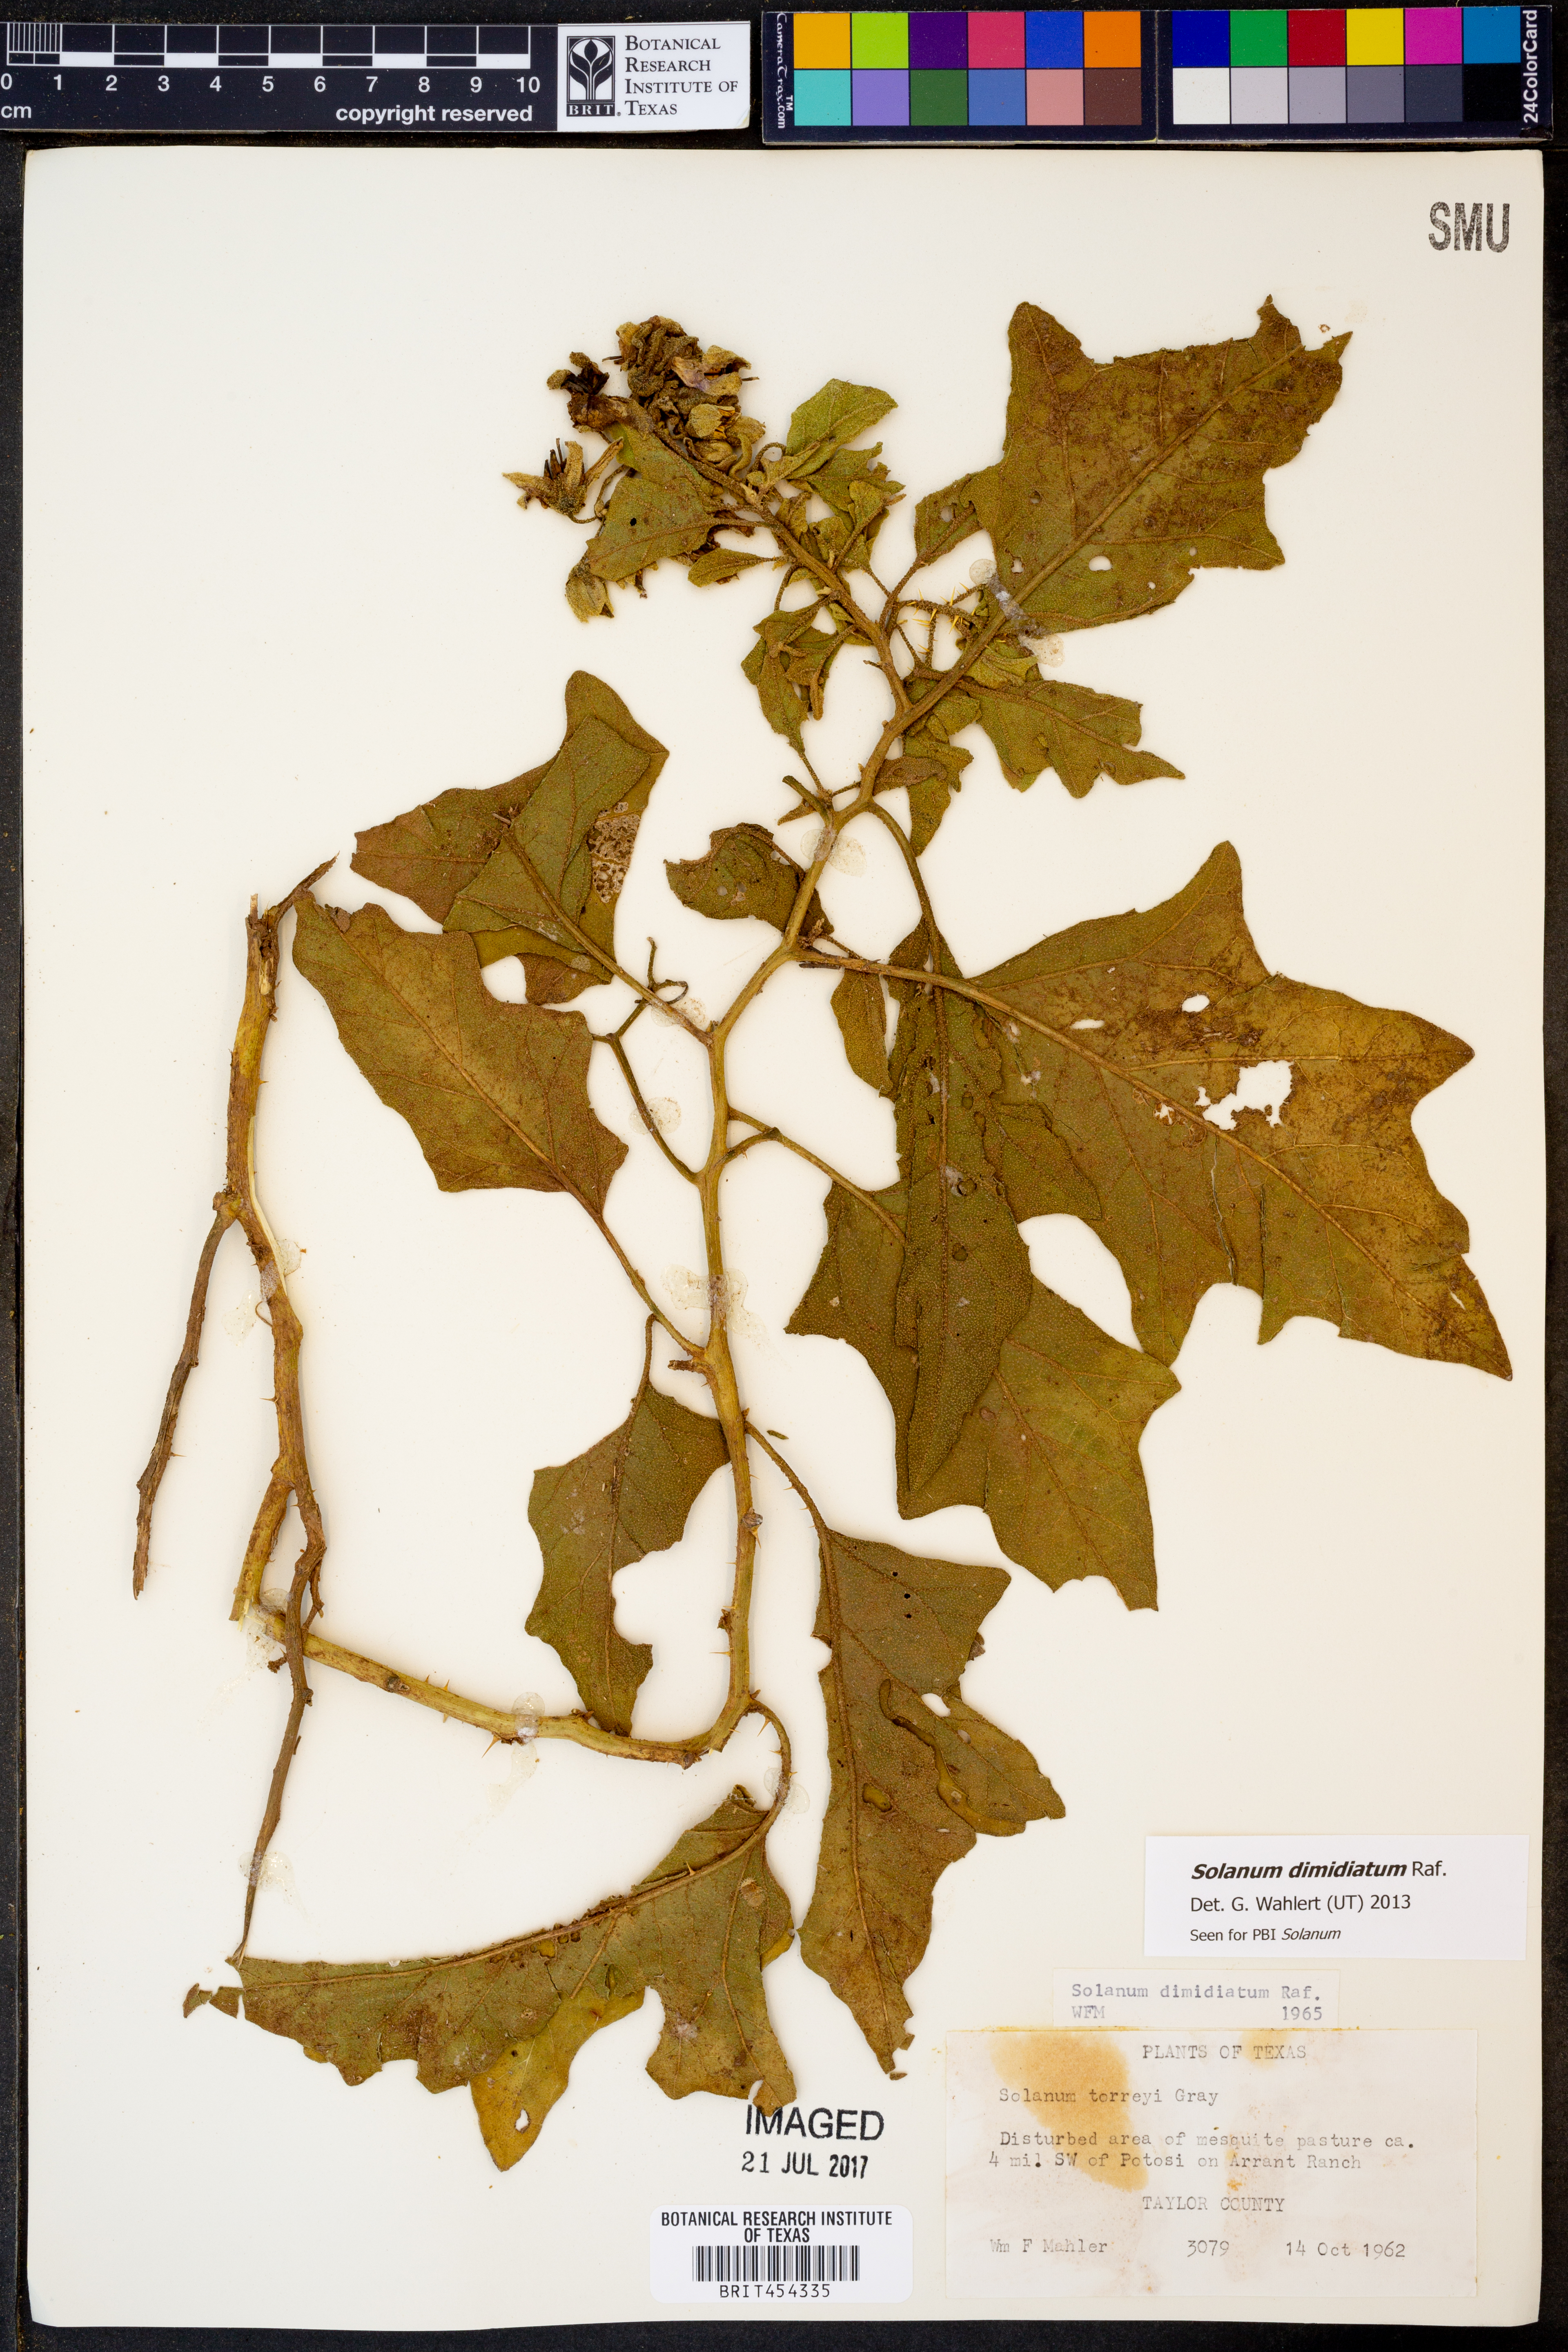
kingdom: Plantae
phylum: Tracheophyta
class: Magnoliopsida
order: Solanales
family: Solanaceae
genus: Solanum
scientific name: Solanum dimidiatum
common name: Carolina horse-nettle
